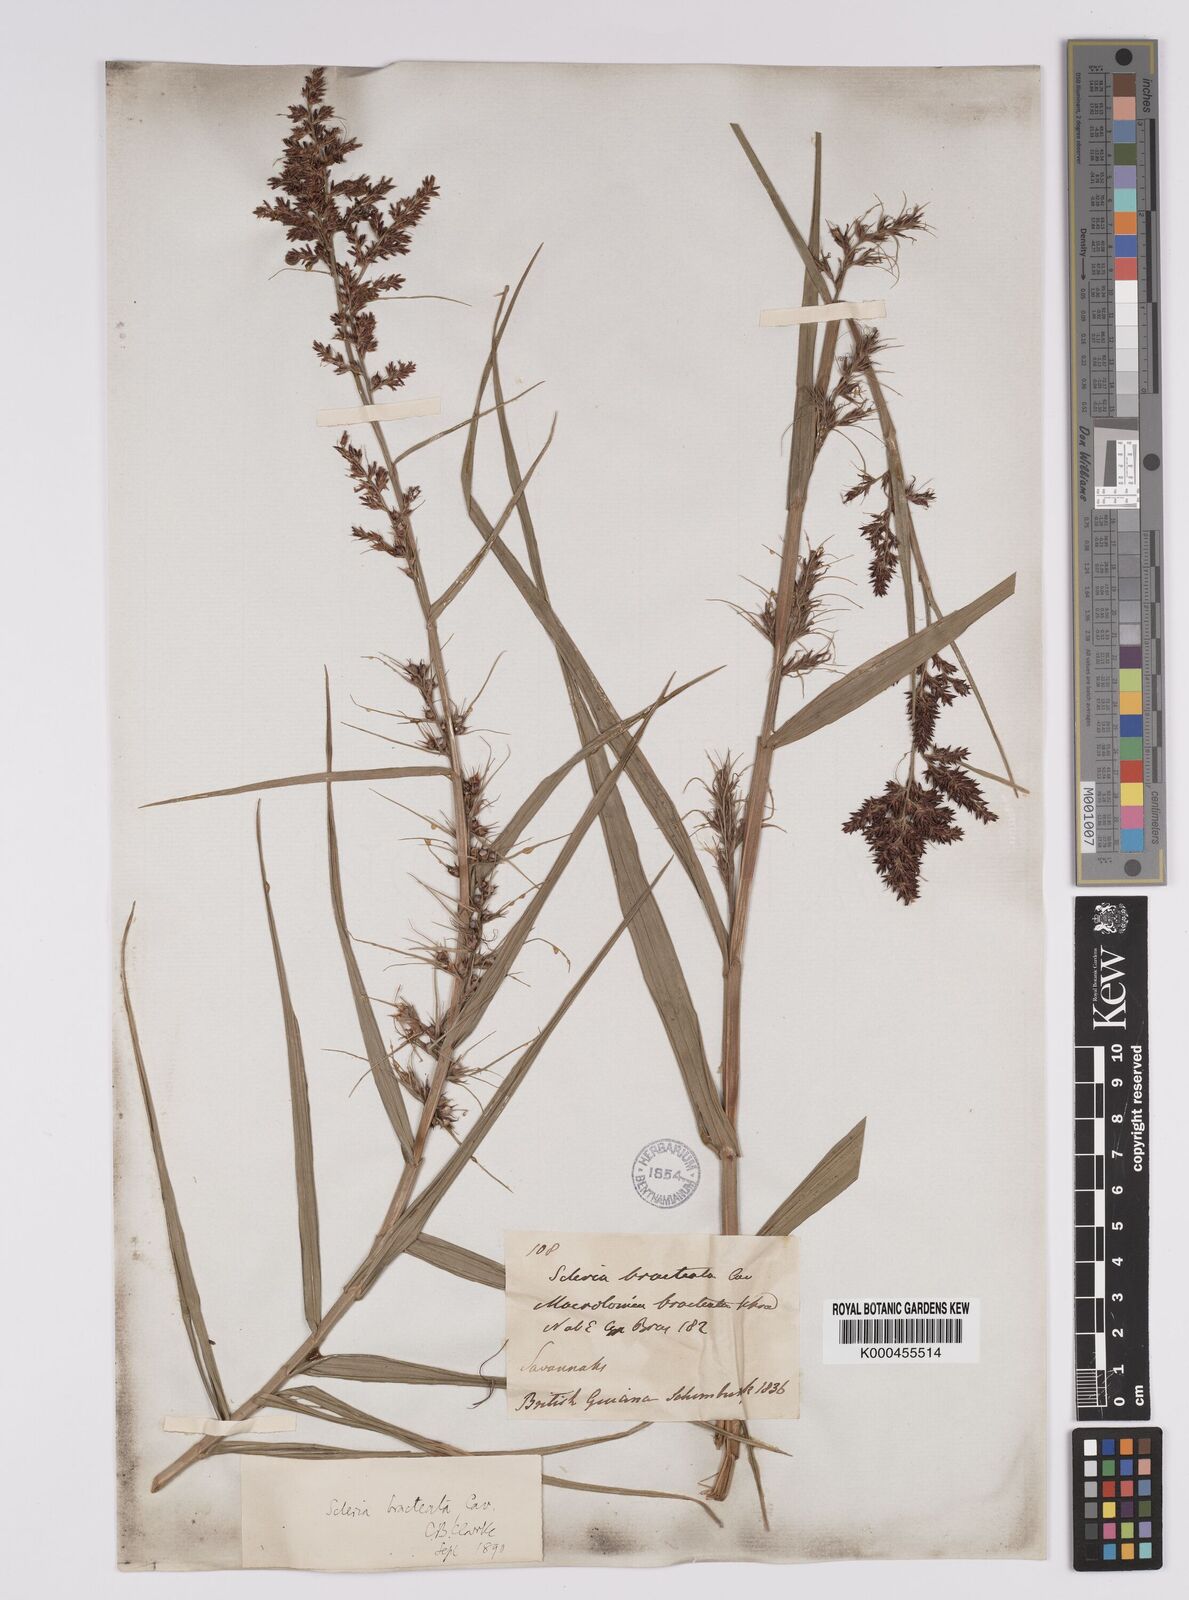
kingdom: Plantae
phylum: Tracheophyta
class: Liliopsida
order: Poales
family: Cyperaceae
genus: Scleria
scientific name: Scleria bracteata
